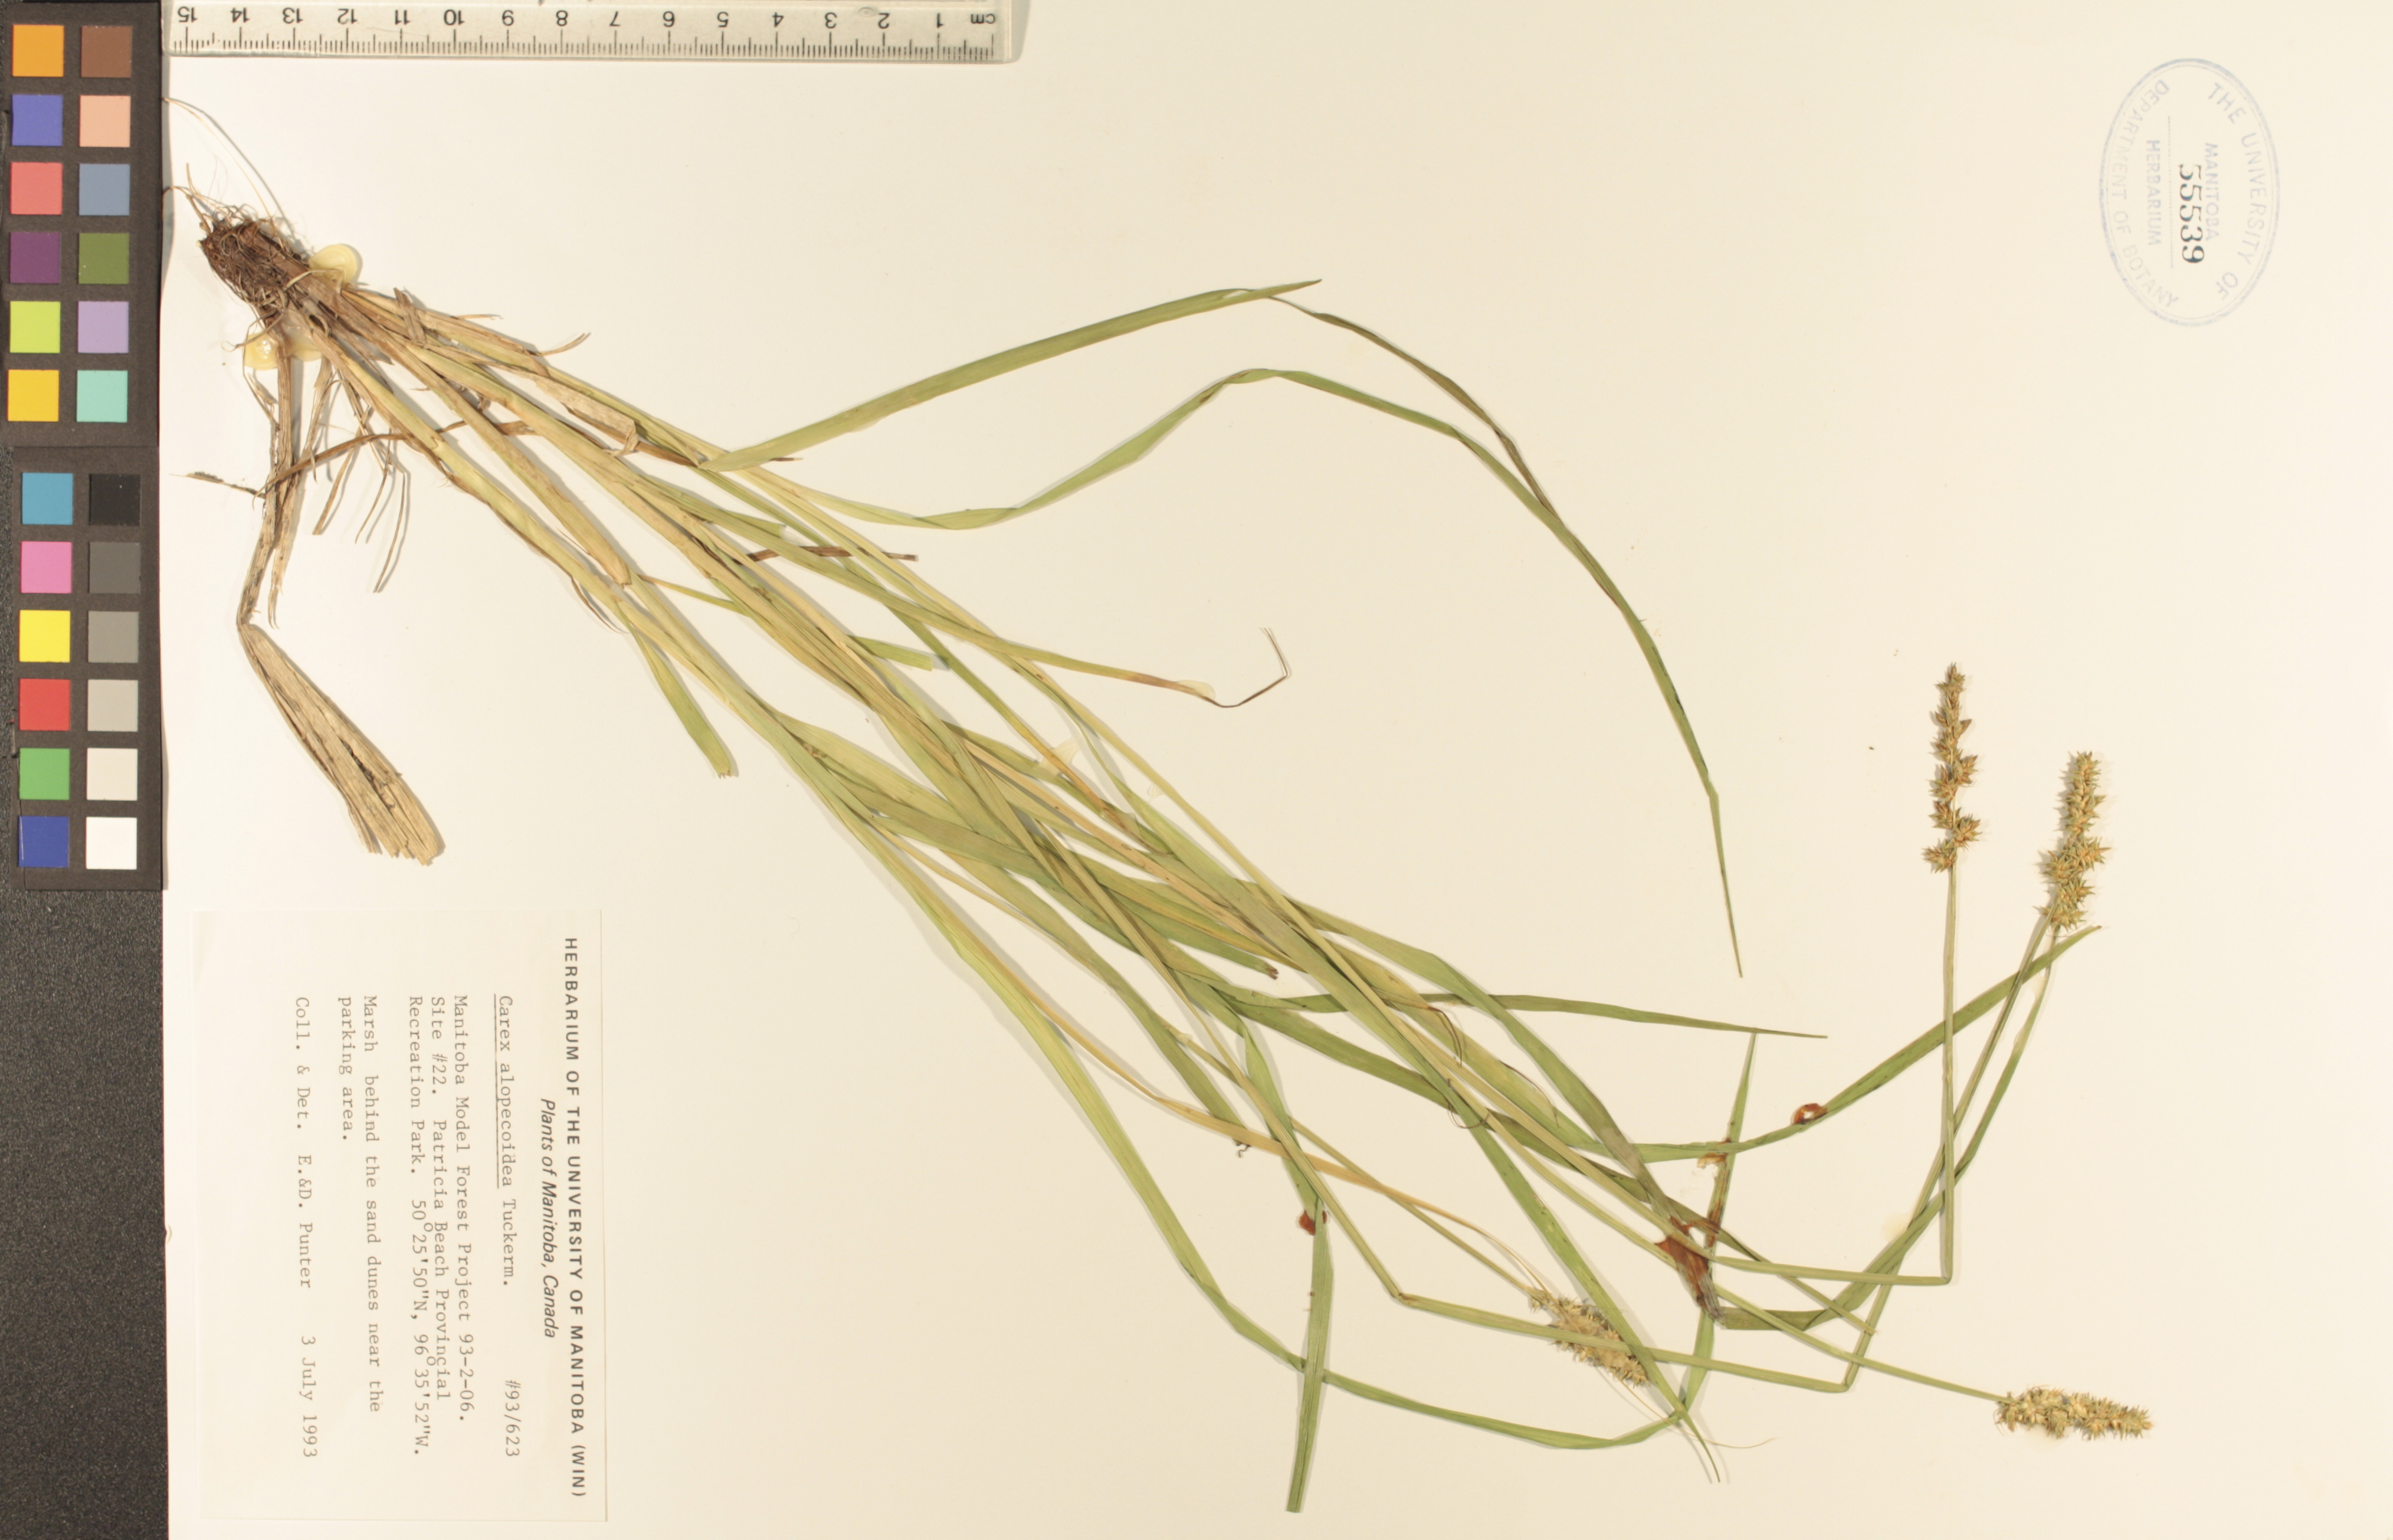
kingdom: Plantae
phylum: Tracheophyta
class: Liliopsida
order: Poales
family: Cyperaceae
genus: Carex
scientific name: Carex alopecoidea
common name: Brown-headed fox sedge
